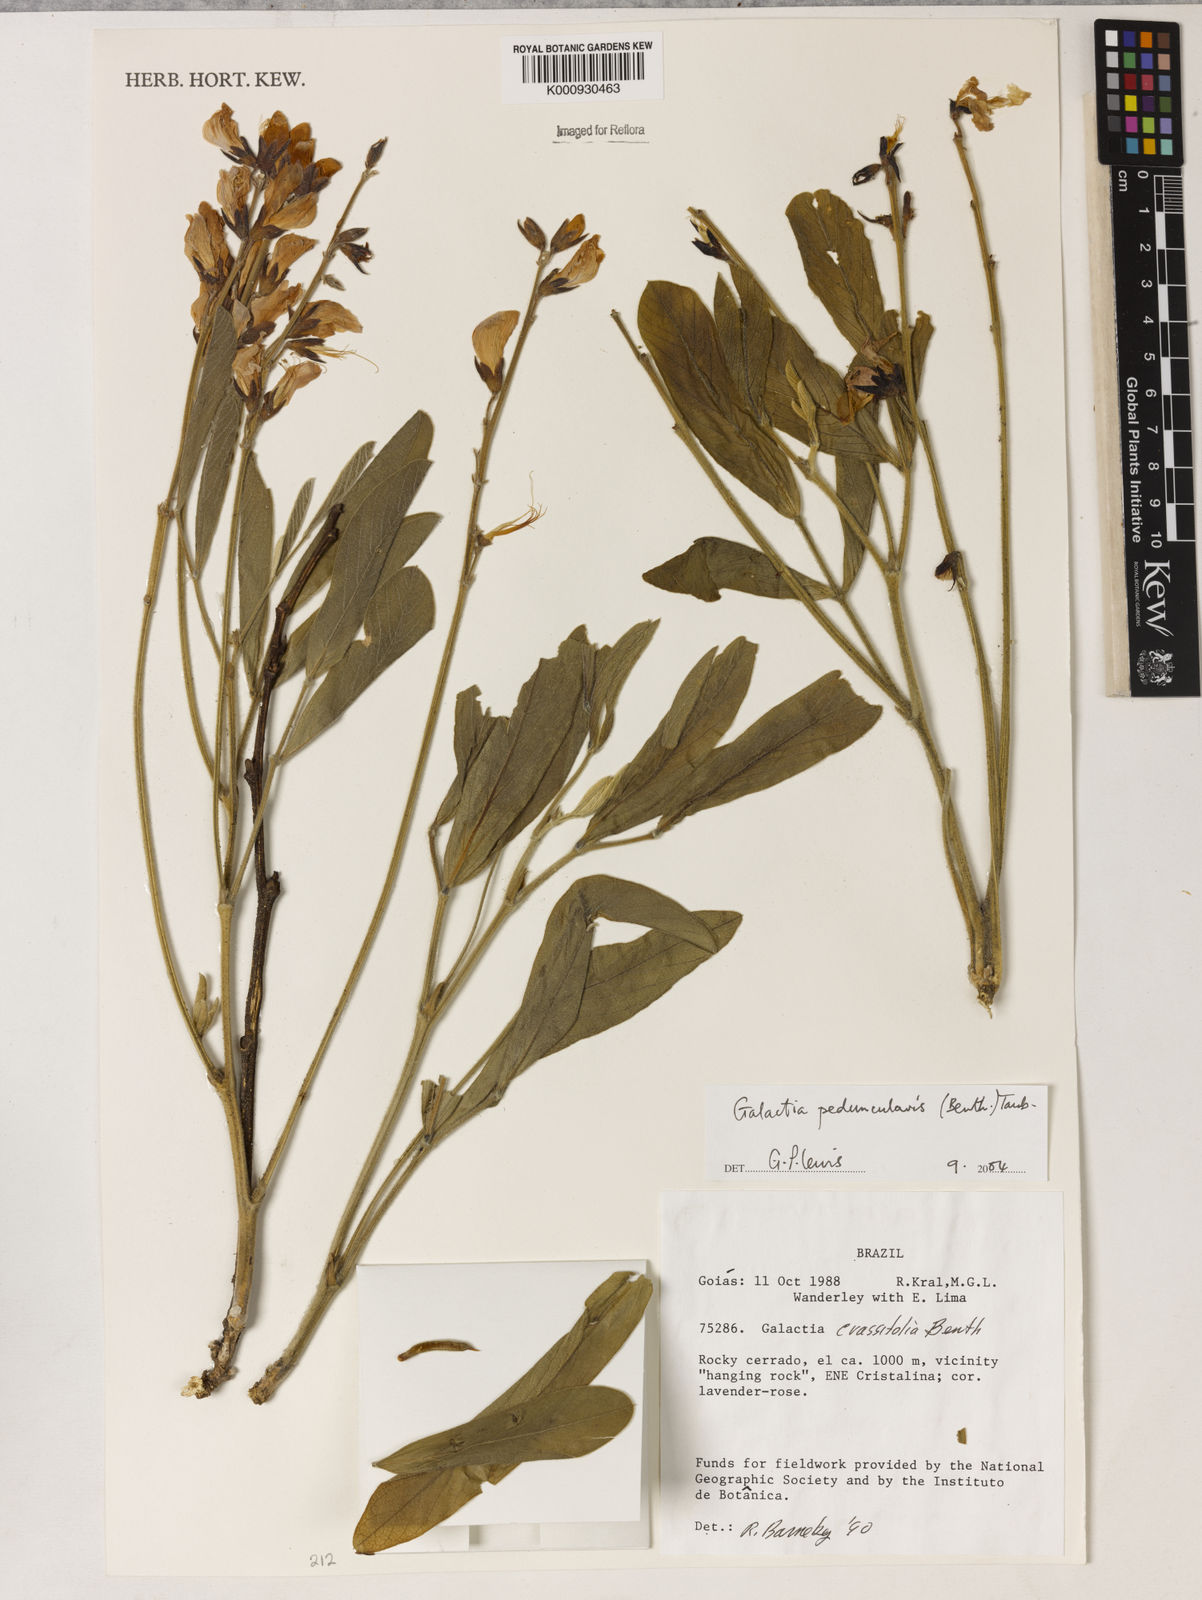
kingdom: Plantae
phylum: Tracheophyta
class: Magnoliopsida
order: Fabales
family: Fabaceae
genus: Galactia
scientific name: Galactia
